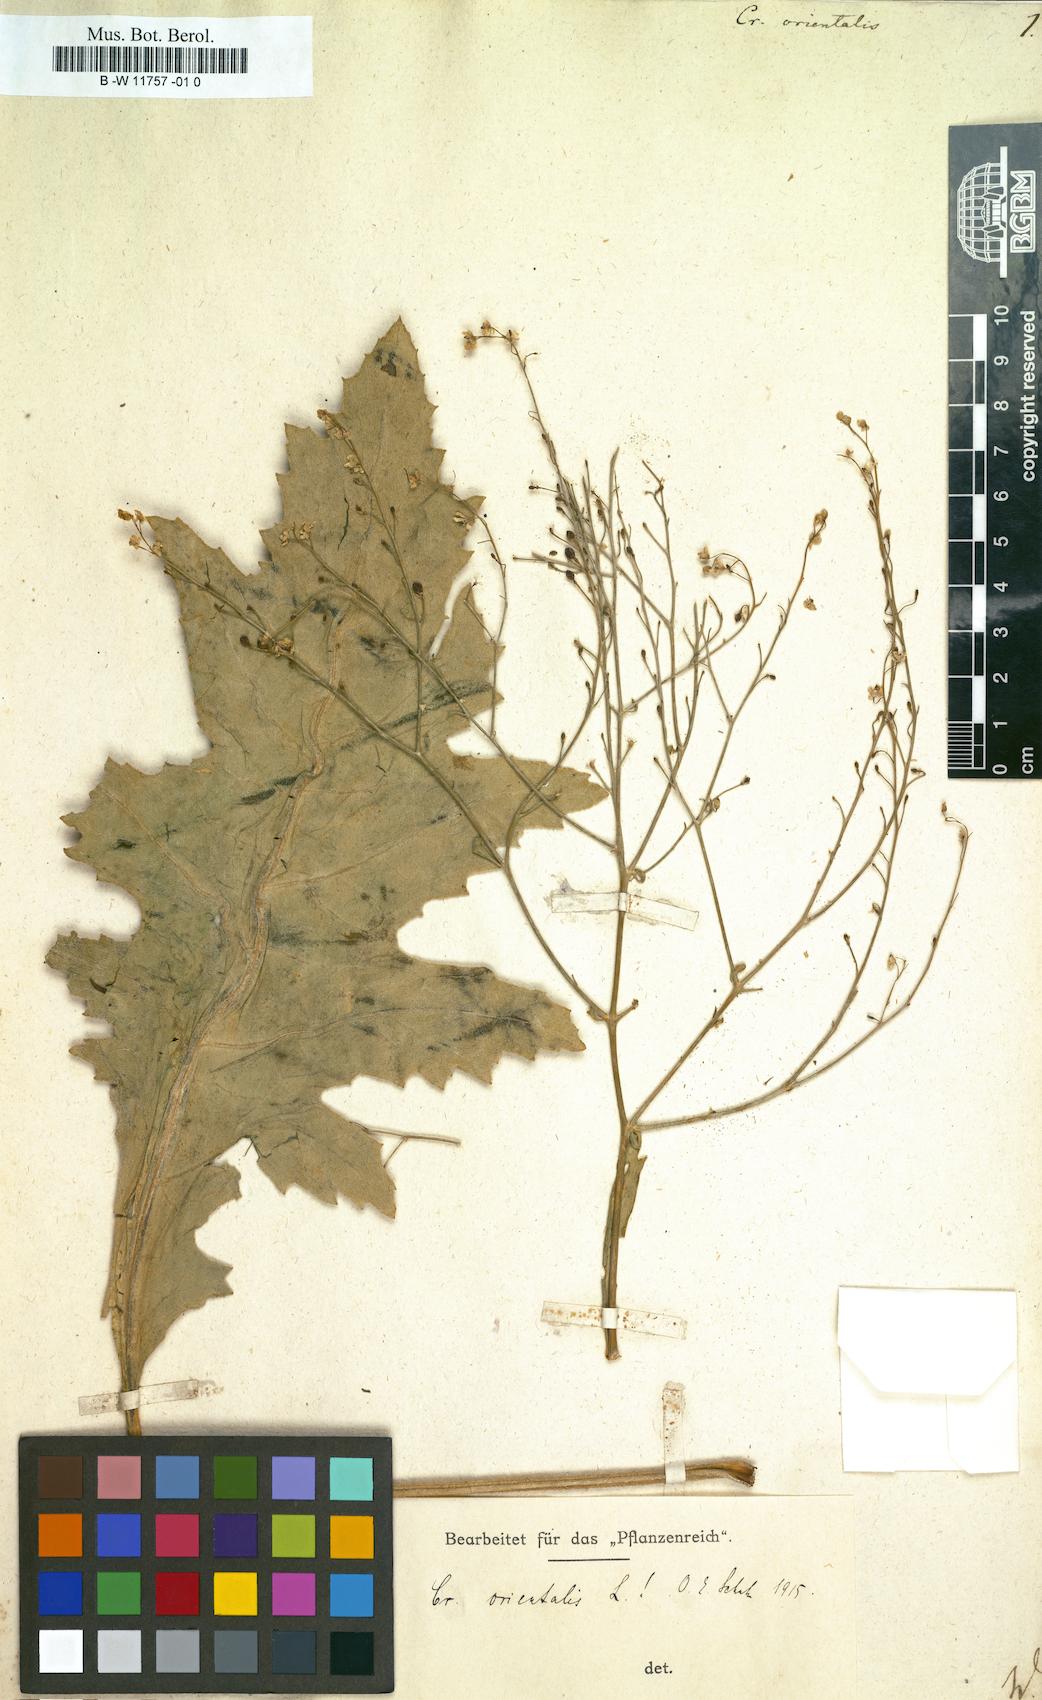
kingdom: Plantae
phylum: Tracheophyta
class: Magnoliopsida
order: Brassicales
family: Brassicaceae
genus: Crambe
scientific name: Crambe orientalis
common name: Oriental sea-kale
